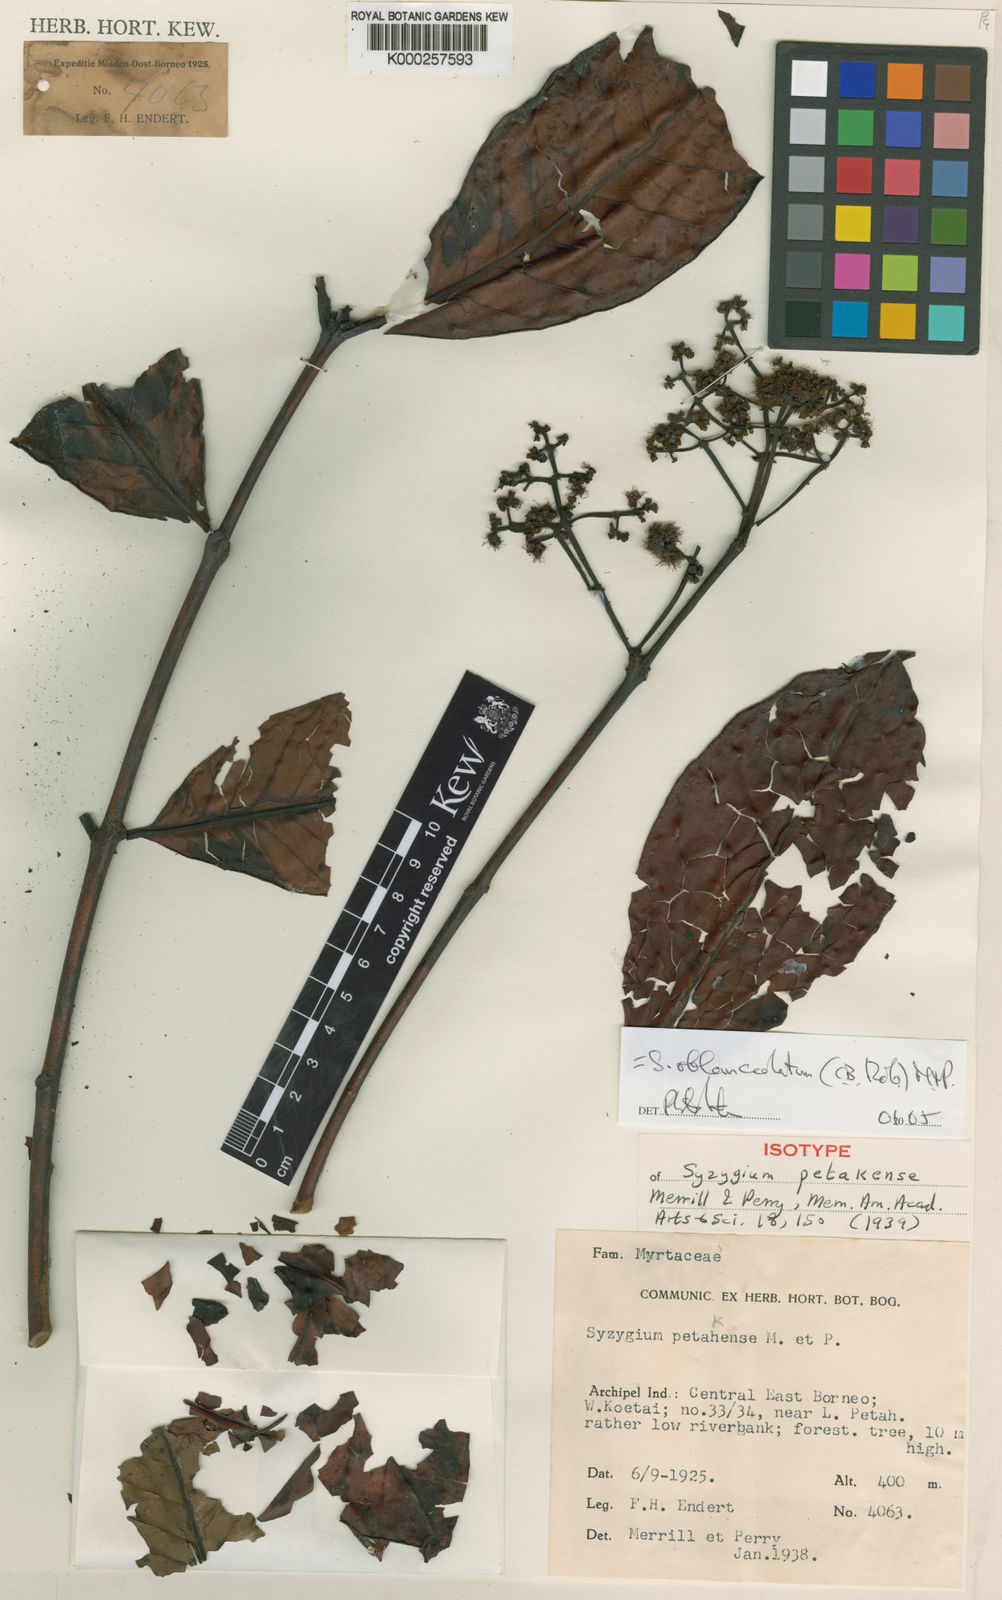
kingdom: Plantae
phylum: Tracheophyta
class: Magnoliopsida
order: Myrtales
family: Myrtaceae
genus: Syzygium
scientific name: Syzygium oblanceolatum
